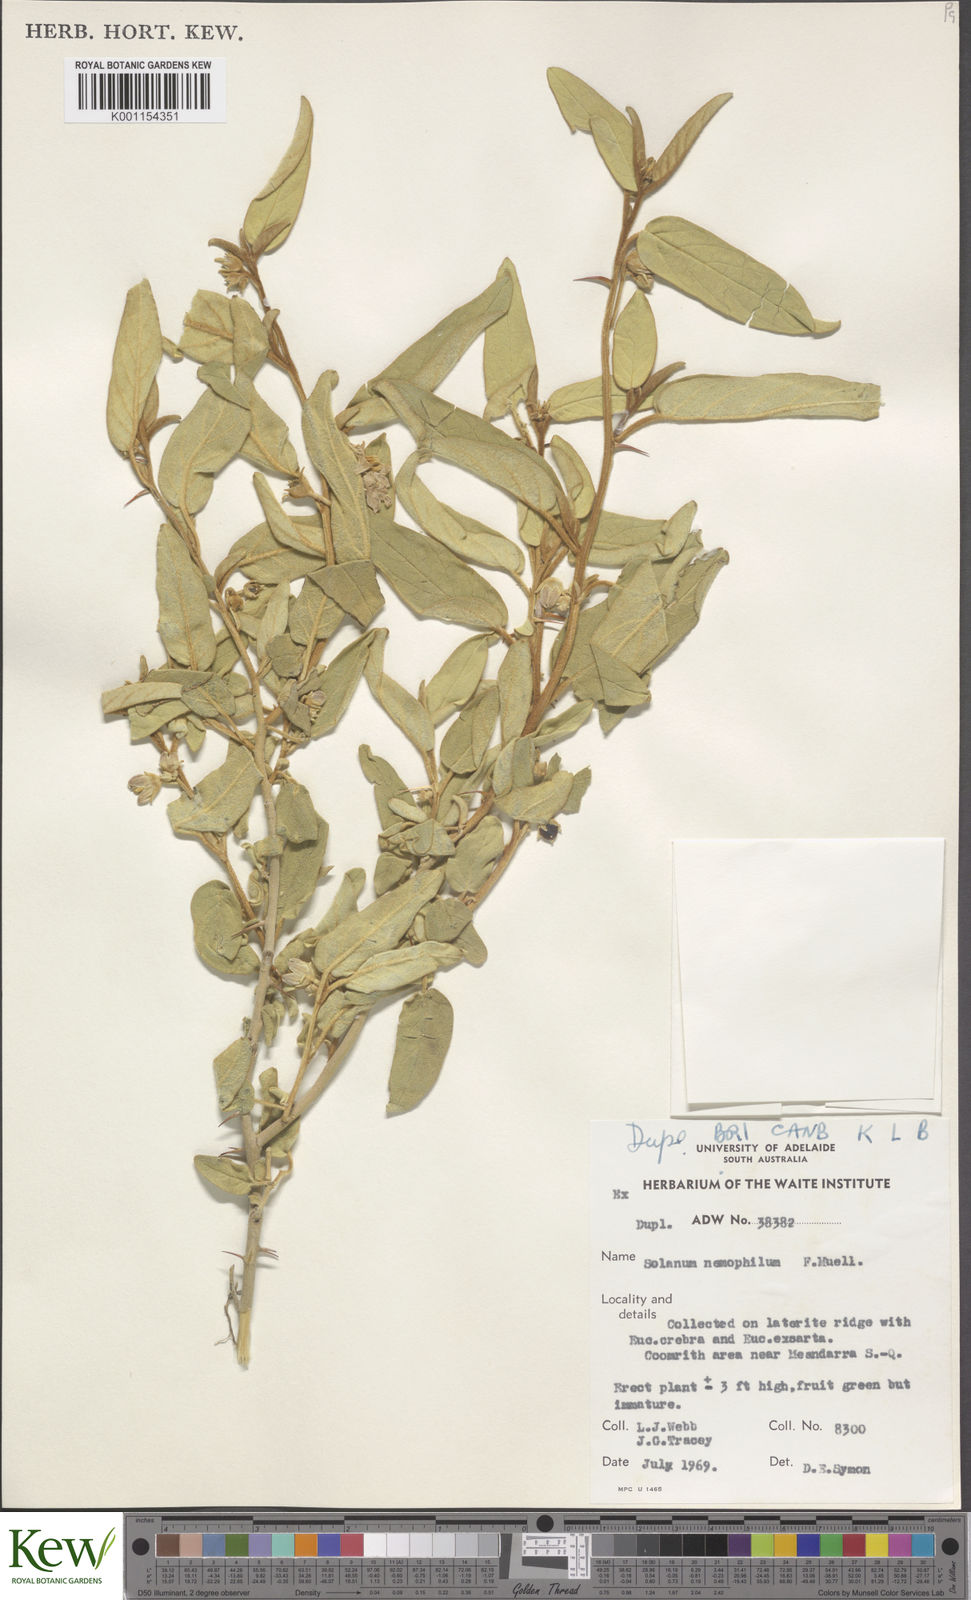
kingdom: Plantae
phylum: Tracheophyta
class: Magnoliopsida
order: Solanales
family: Solanaceae
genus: Solanum
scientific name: Solanum nemophilum
